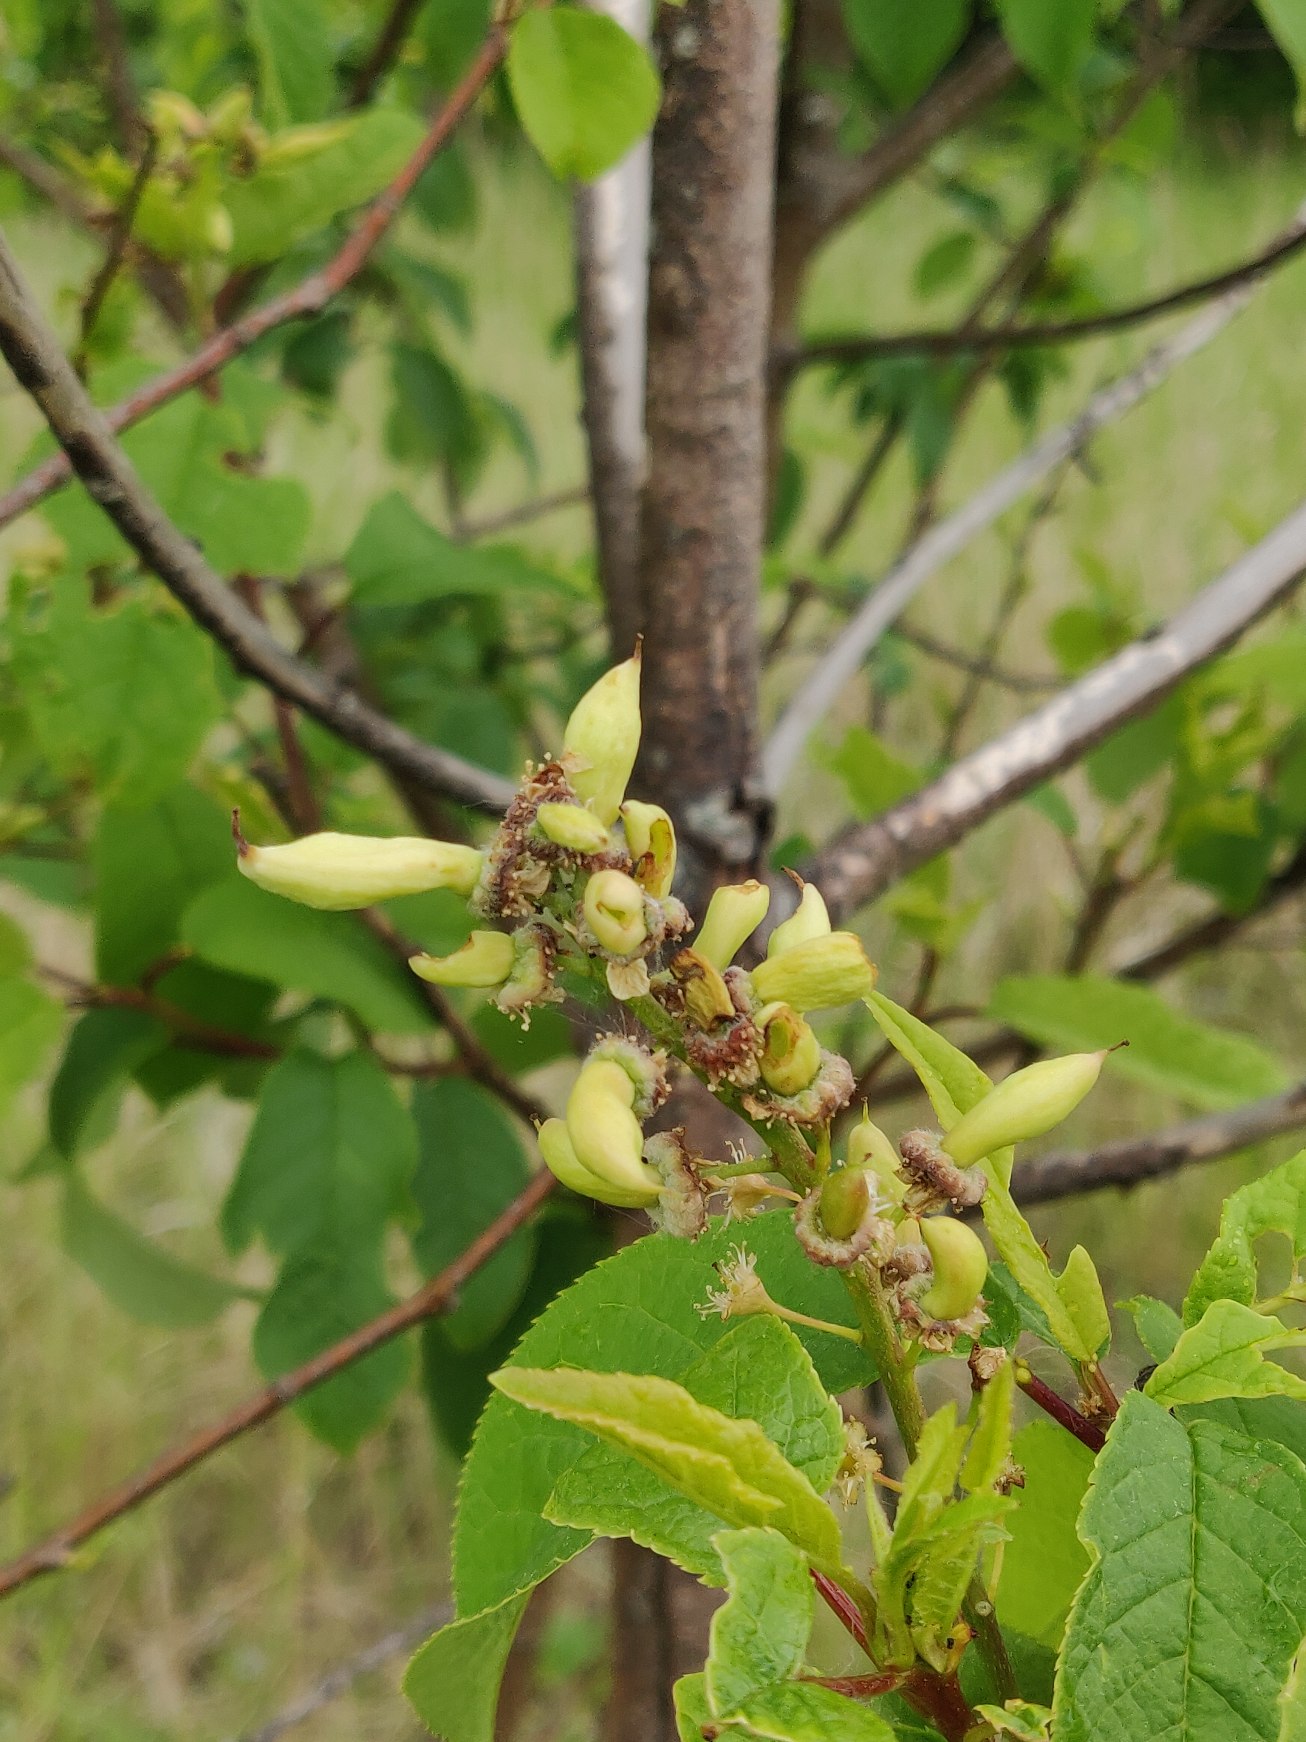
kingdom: Plantae
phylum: Tracheophyta
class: Magnoliopsida
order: Rosales
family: Rosaceae
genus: Prunus
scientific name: Prunus padus
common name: Almindelig hæg
